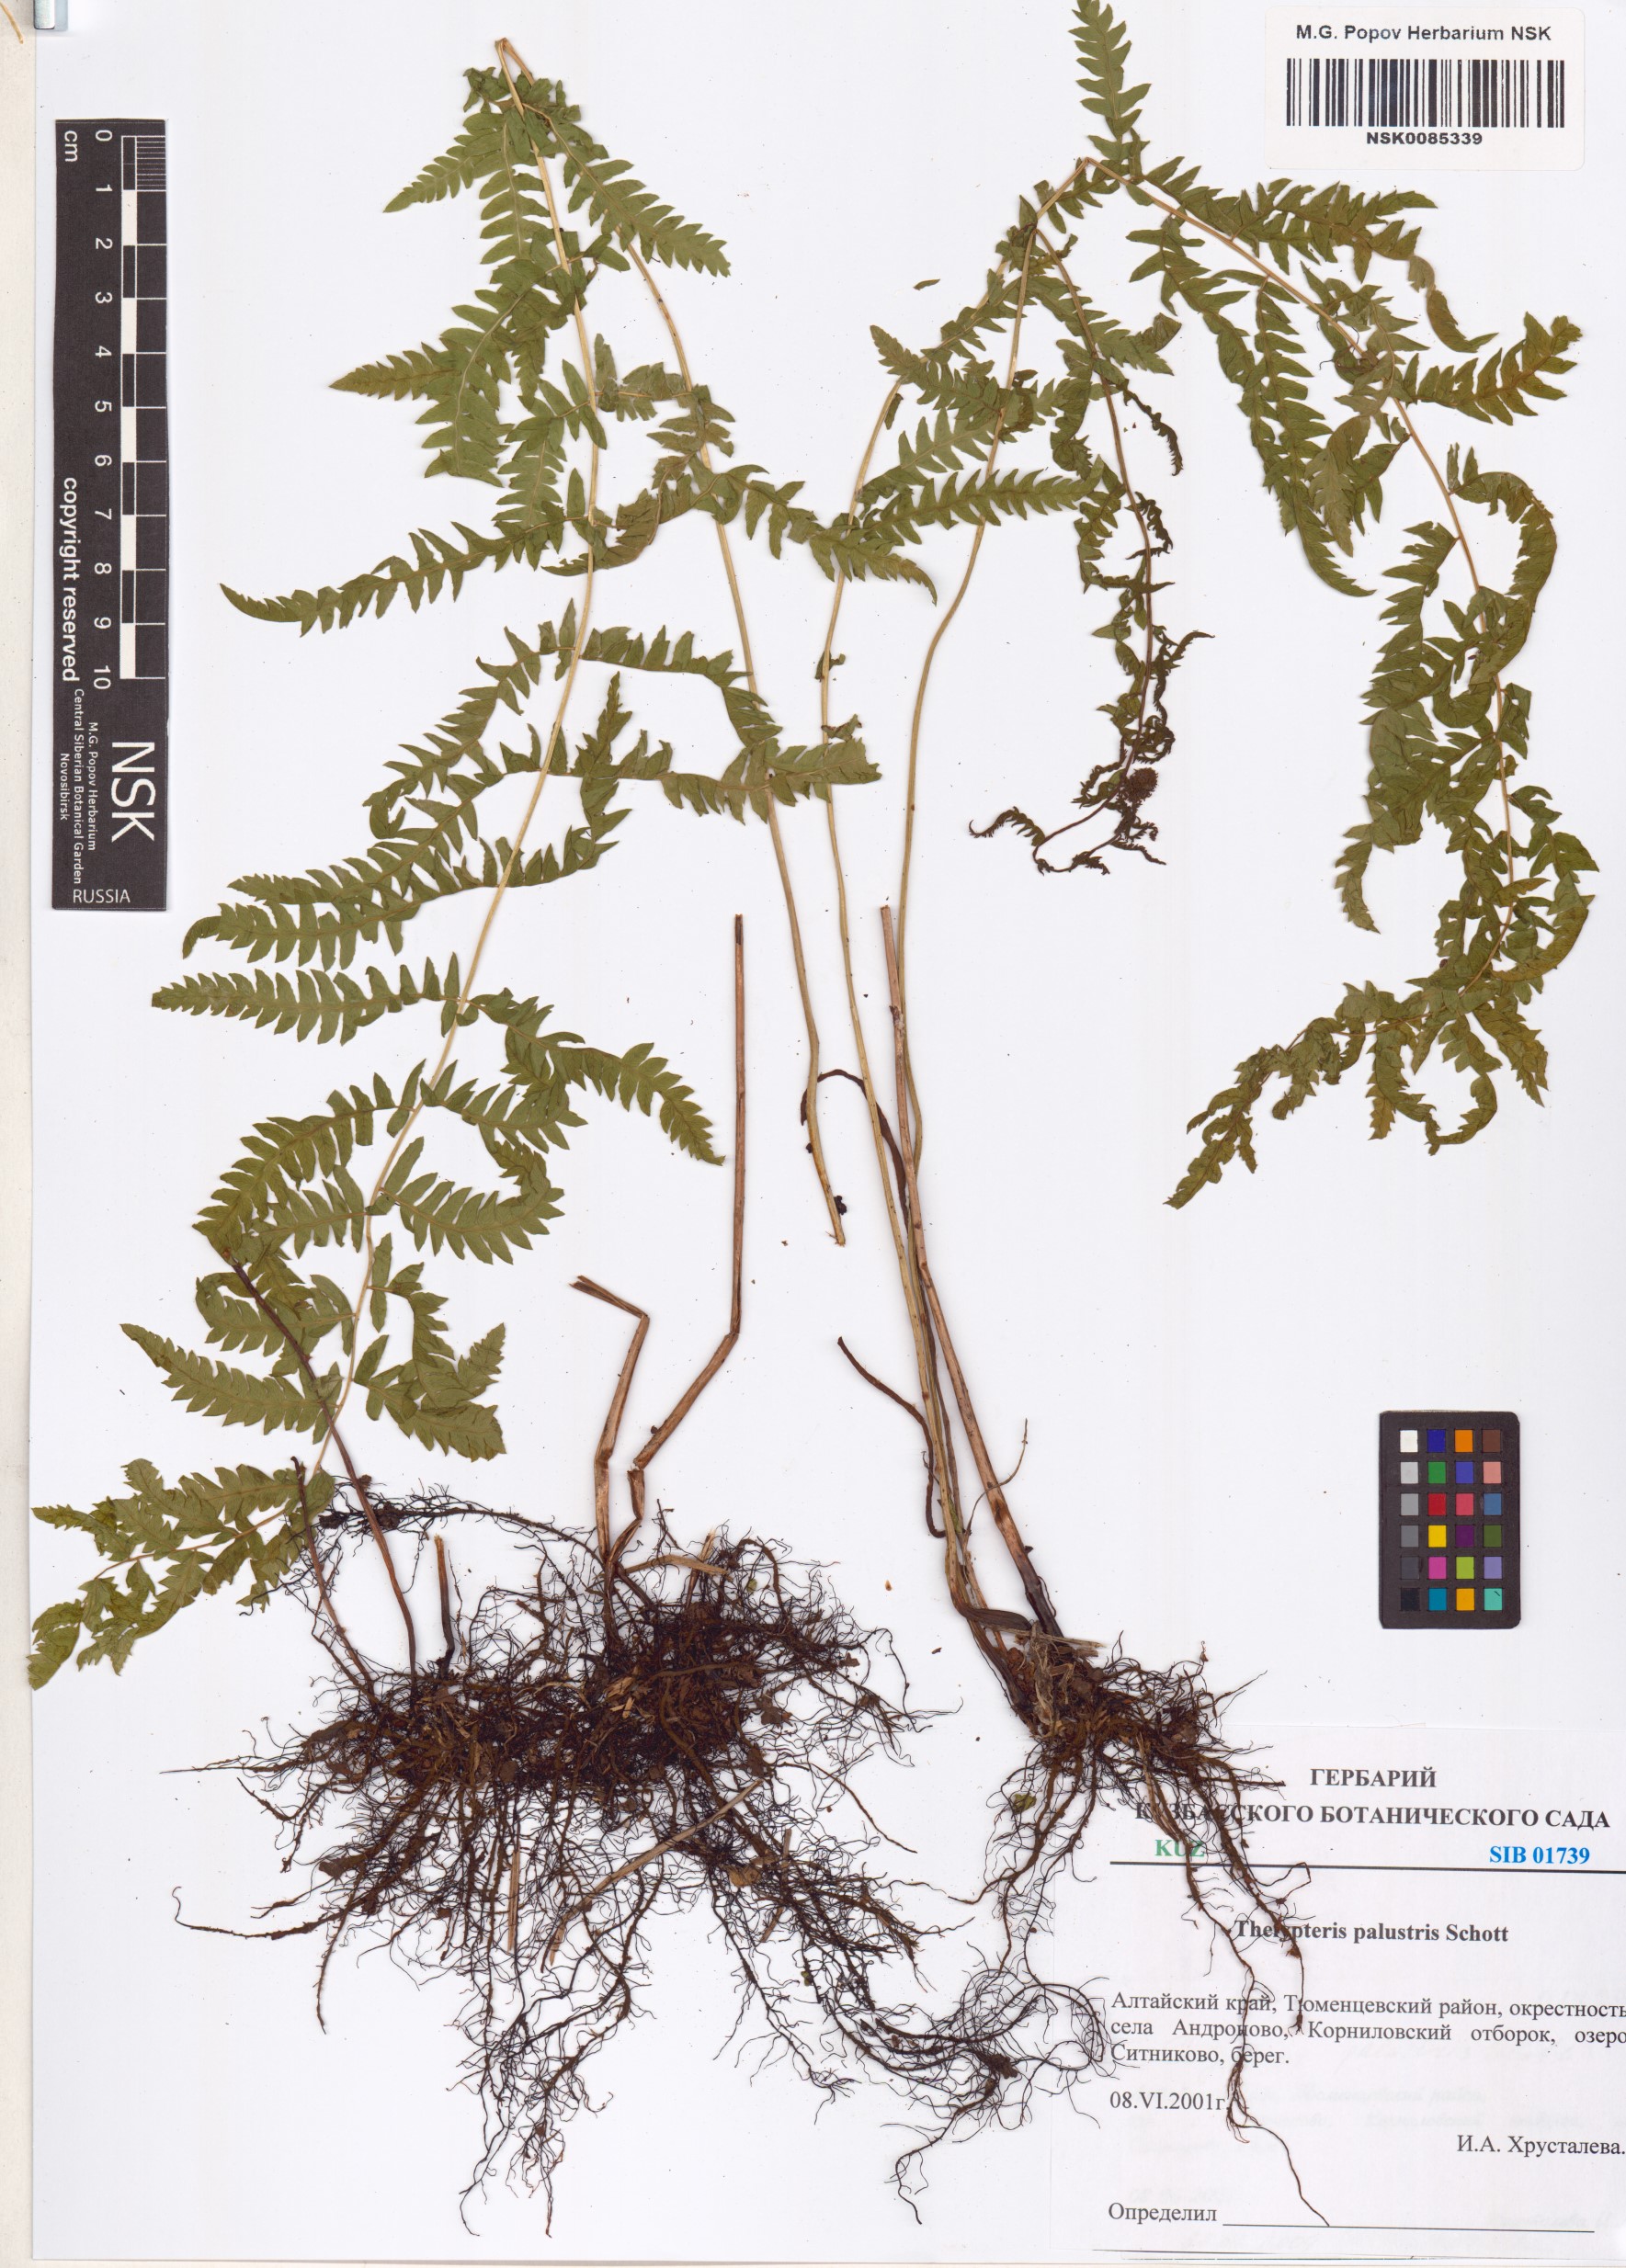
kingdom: Plantae
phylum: Tracheophyta
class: Polypodiopsida
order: Polypodiales
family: Thelypteridaceae
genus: Thelypteris
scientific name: Thelypteris palustris
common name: Marsh fern
